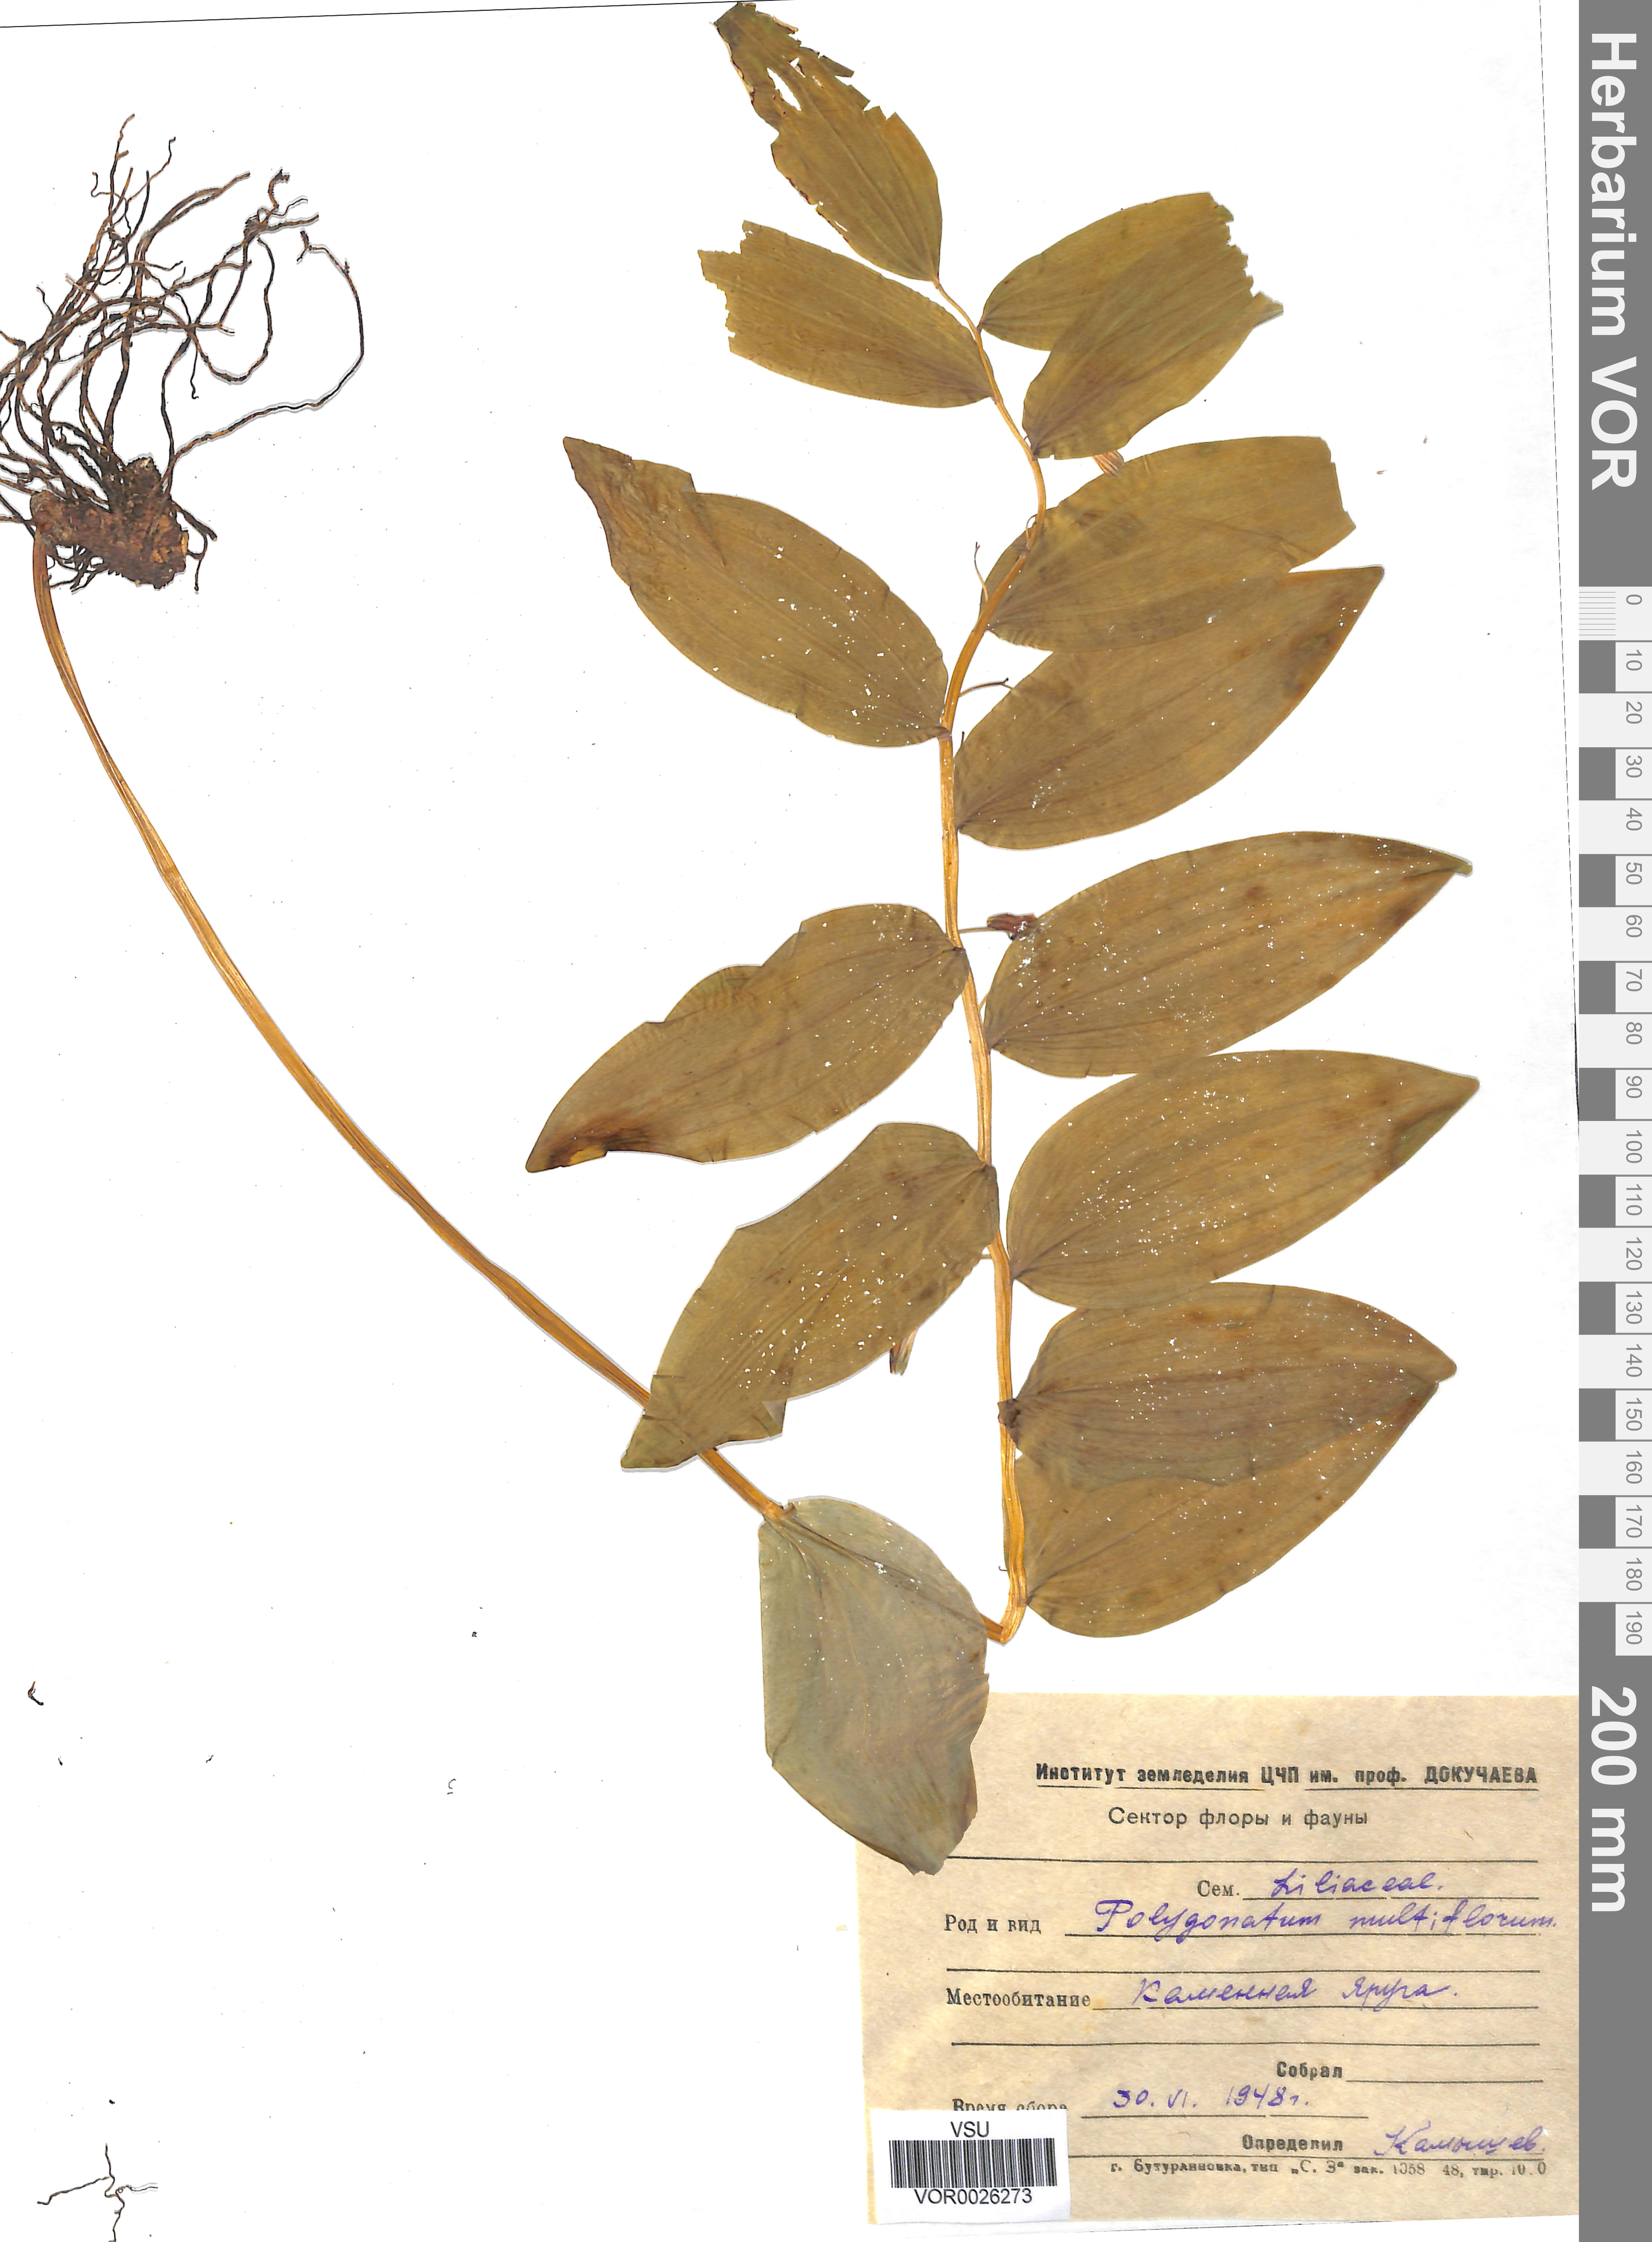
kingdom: Plantae
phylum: Tracheophyta
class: Liliopsida
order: Asparagales
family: Asparagaceae
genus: Polygonatum
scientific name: Polygonatum multiflorum
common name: Solomon's-seal
